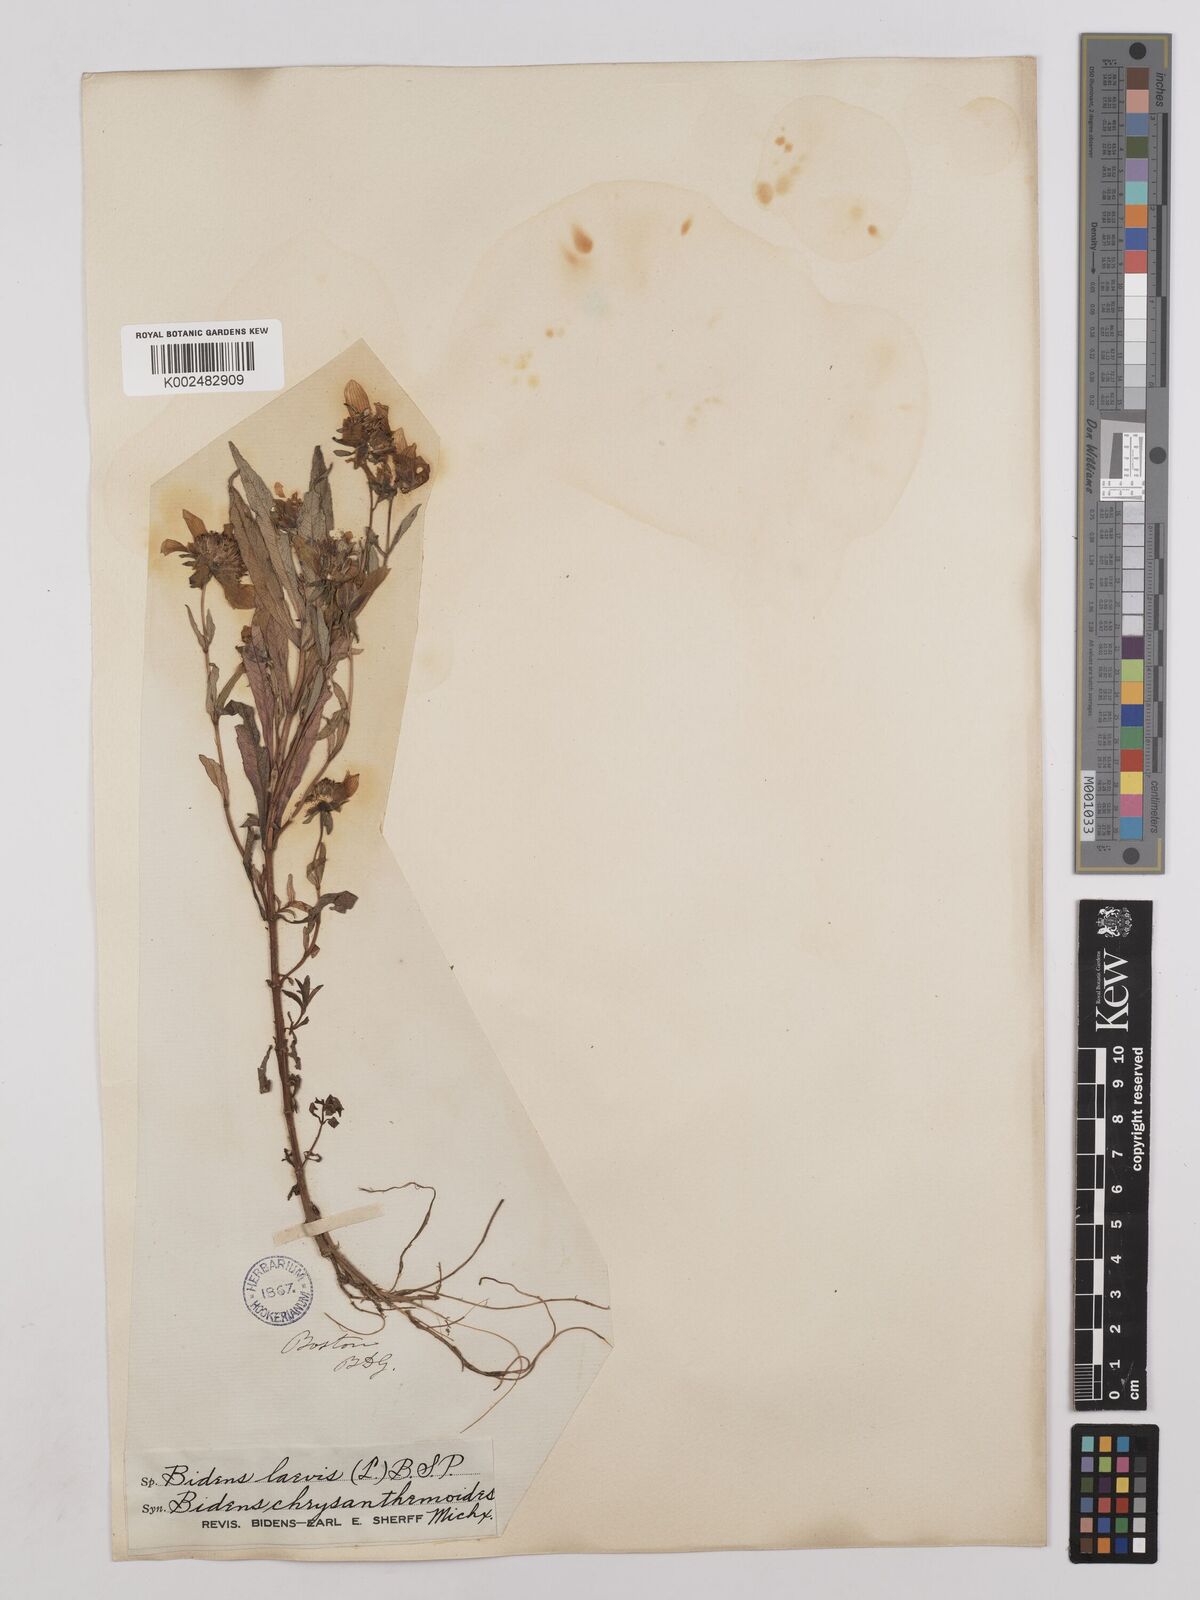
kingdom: Plantae
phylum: Tracheophyta
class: Magnoliopsida
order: Asterales
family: Asteraceae
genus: Bidens
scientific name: Bidens
